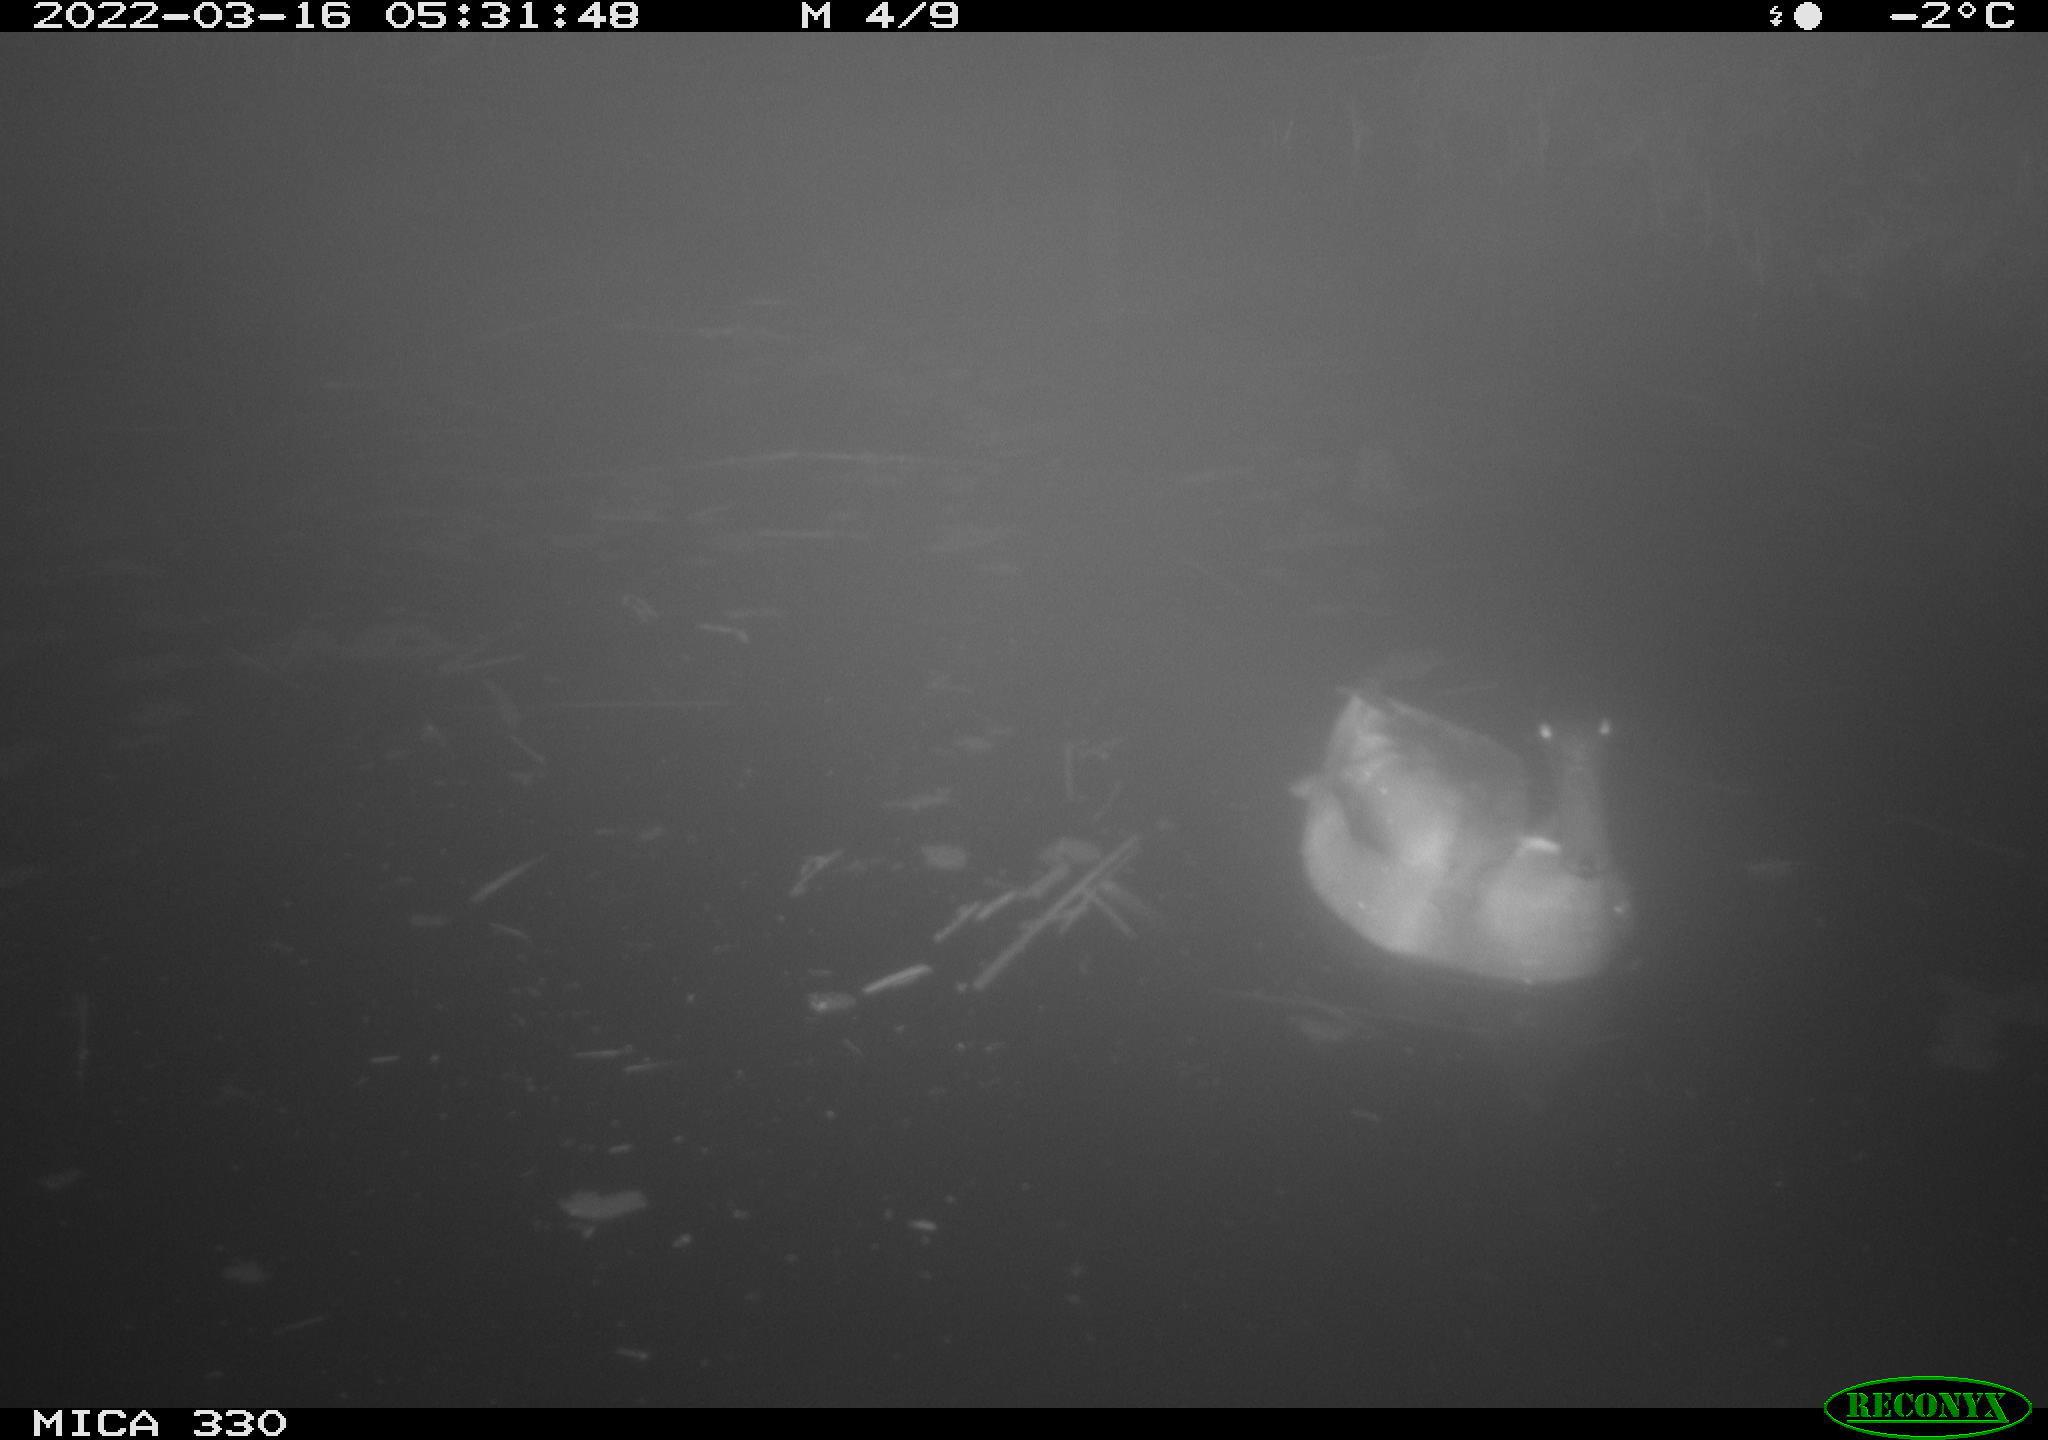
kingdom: Animalia
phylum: Chordata
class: Aves
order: Anseriformes
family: Anatidae
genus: Anas
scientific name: Anas platyrhynchos
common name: Mallard
